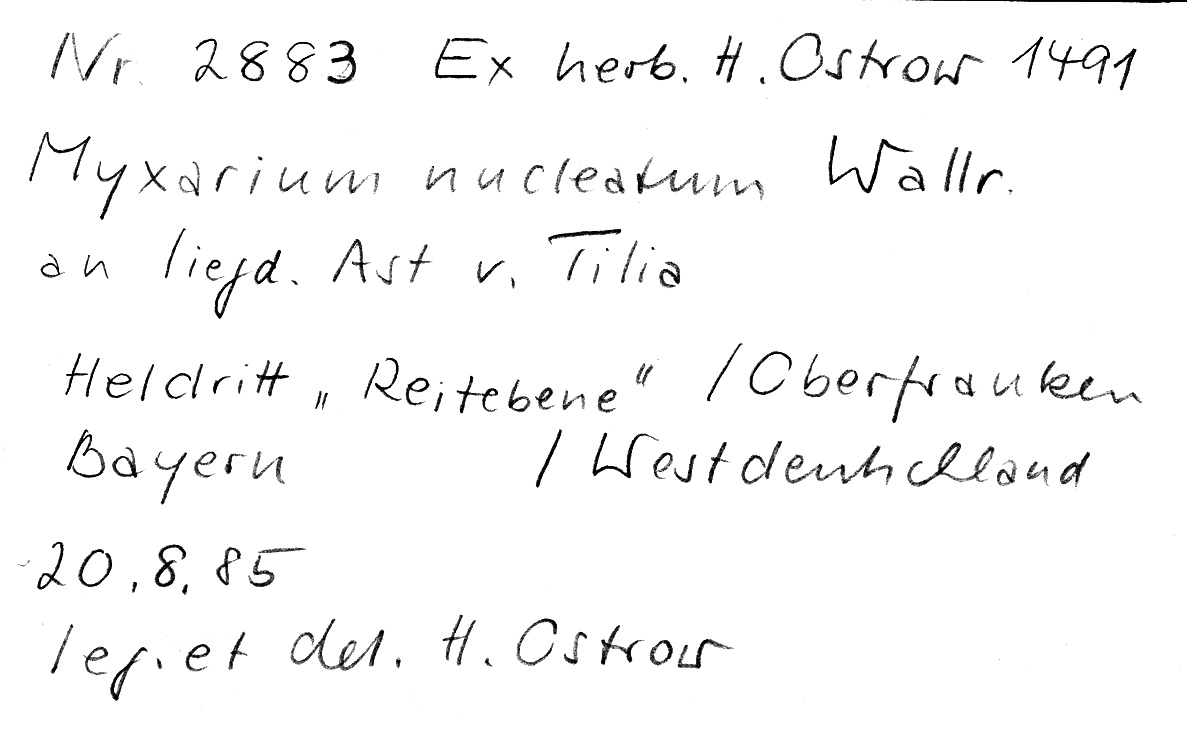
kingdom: Plantae
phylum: Tracheophyta
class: Magnoliopsida
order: Malvales
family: Malvaceae
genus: Tilia
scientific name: Tilia
